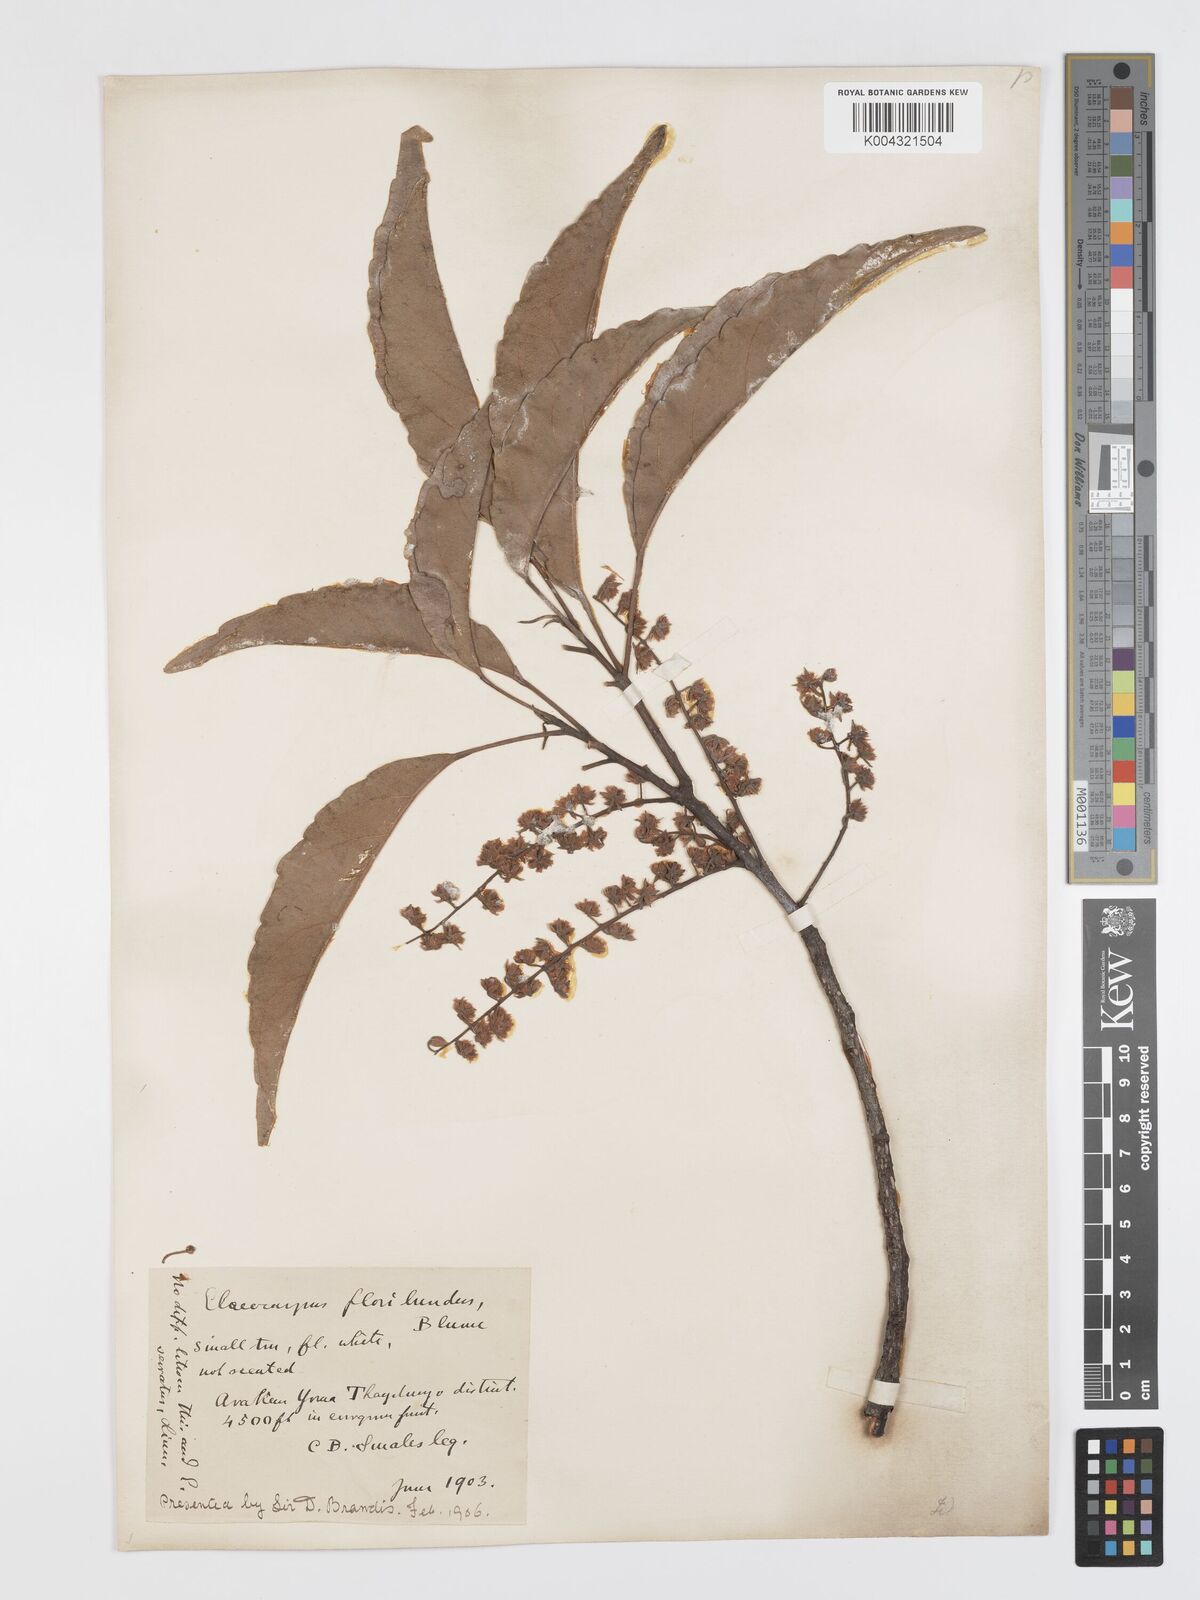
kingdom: Plantae
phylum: Tracheophyta
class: Magnoliopsida
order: Oxalidales
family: Elaeocarpaceae
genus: Elaeocarpus
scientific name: Elaeocarpus floribundus
